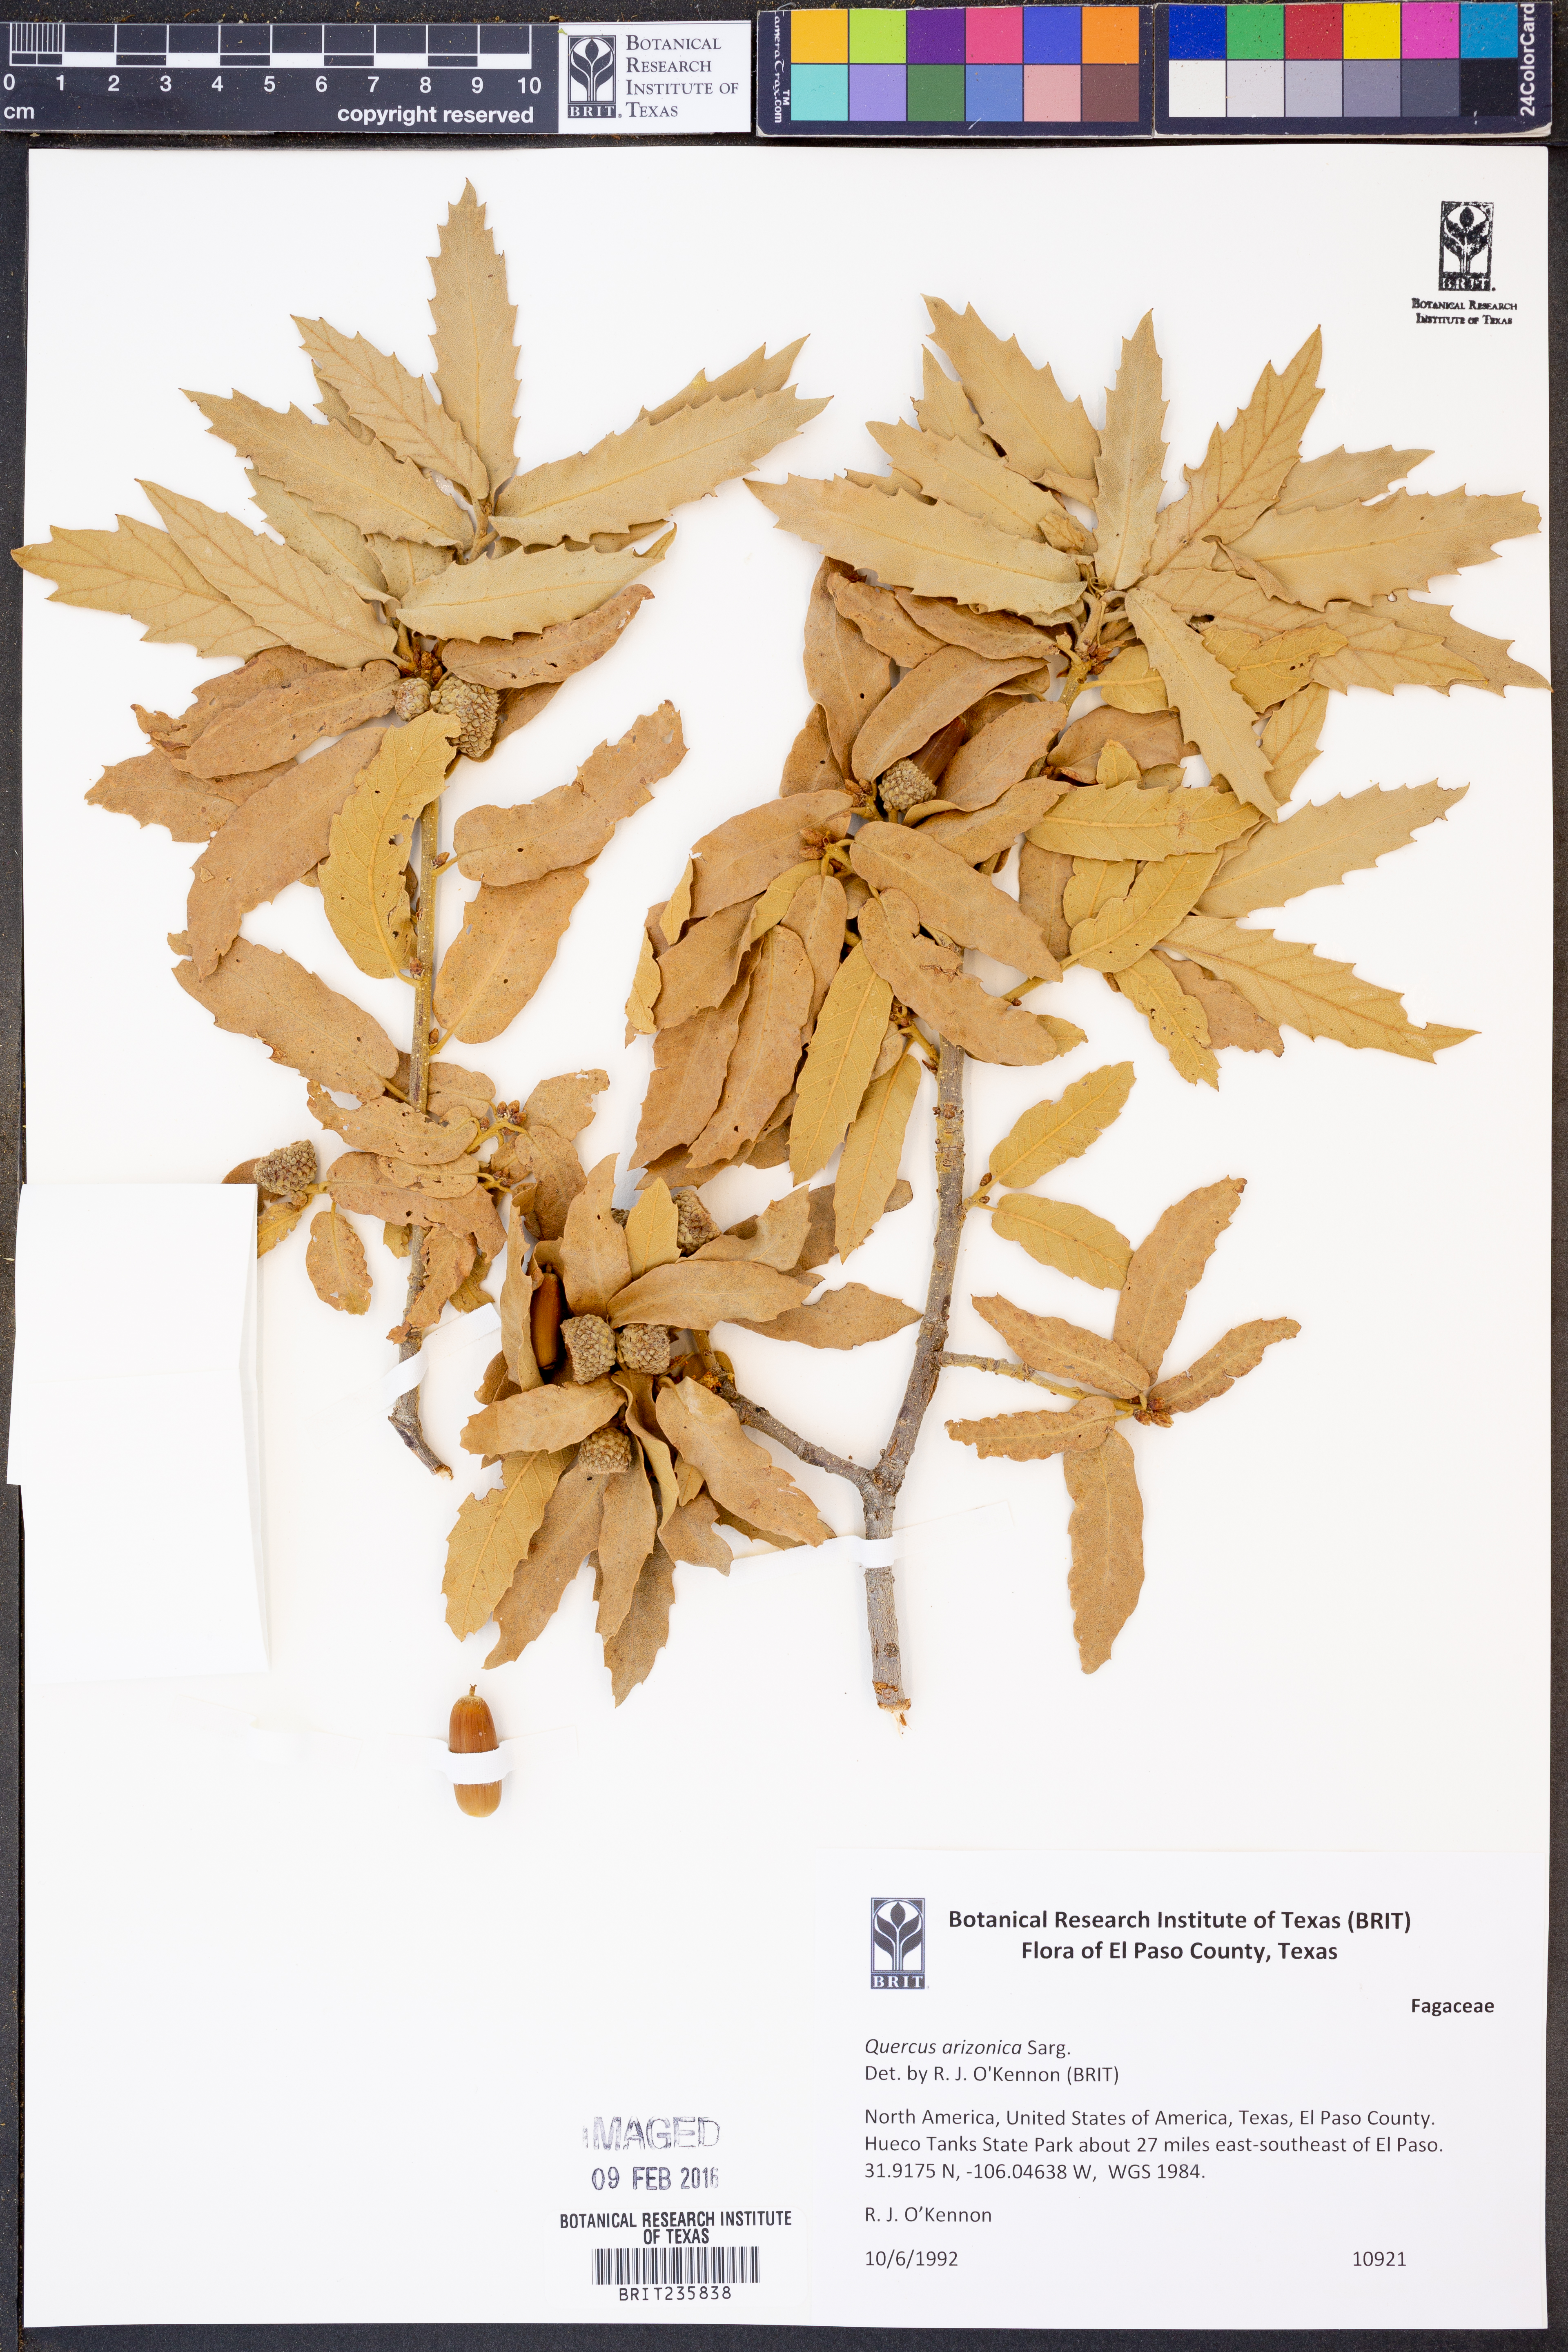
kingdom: Plantae
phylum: Tracheophyta
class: Magnoliopsida
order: Fagales
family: Fagaceae
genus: Quercus
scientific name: Quercus arizonica
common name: Arizona white oak
